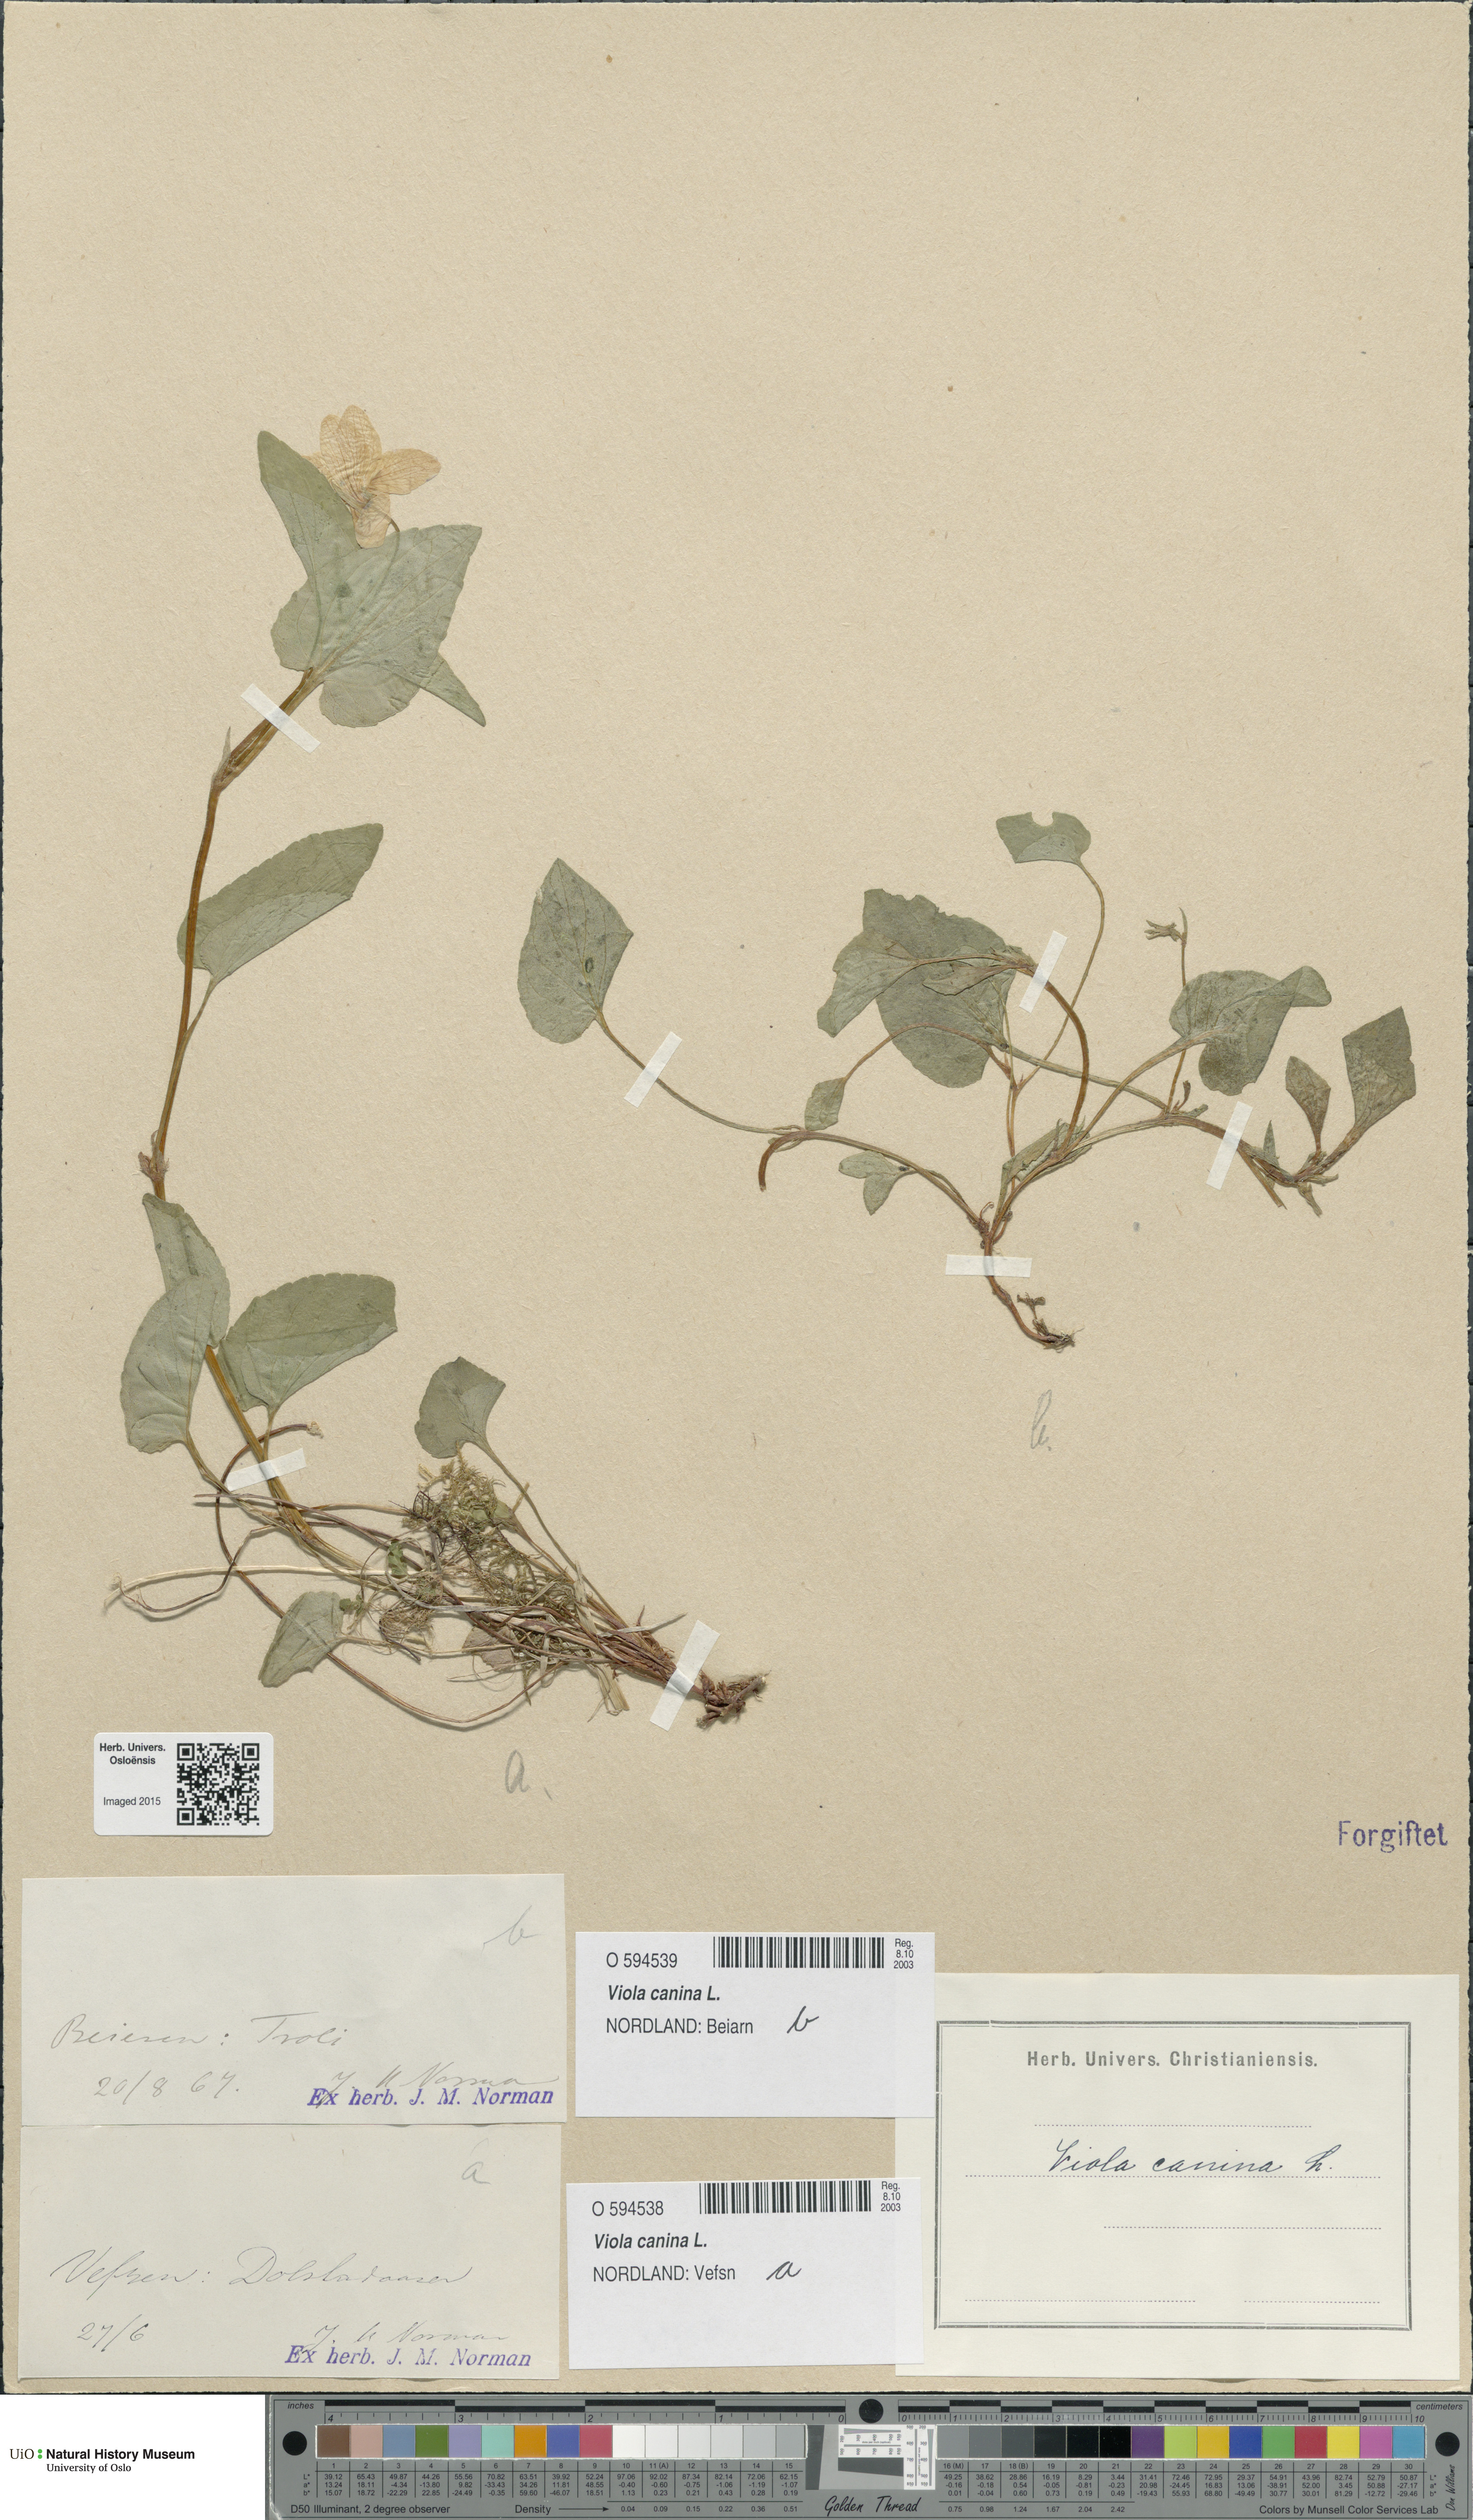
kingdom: Plantae
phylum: Tracheophyta
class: Magnoliopsida
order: Malpighiales
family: Violaceae
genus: Viola
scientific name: Viola canina
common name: Heath dog-violet
